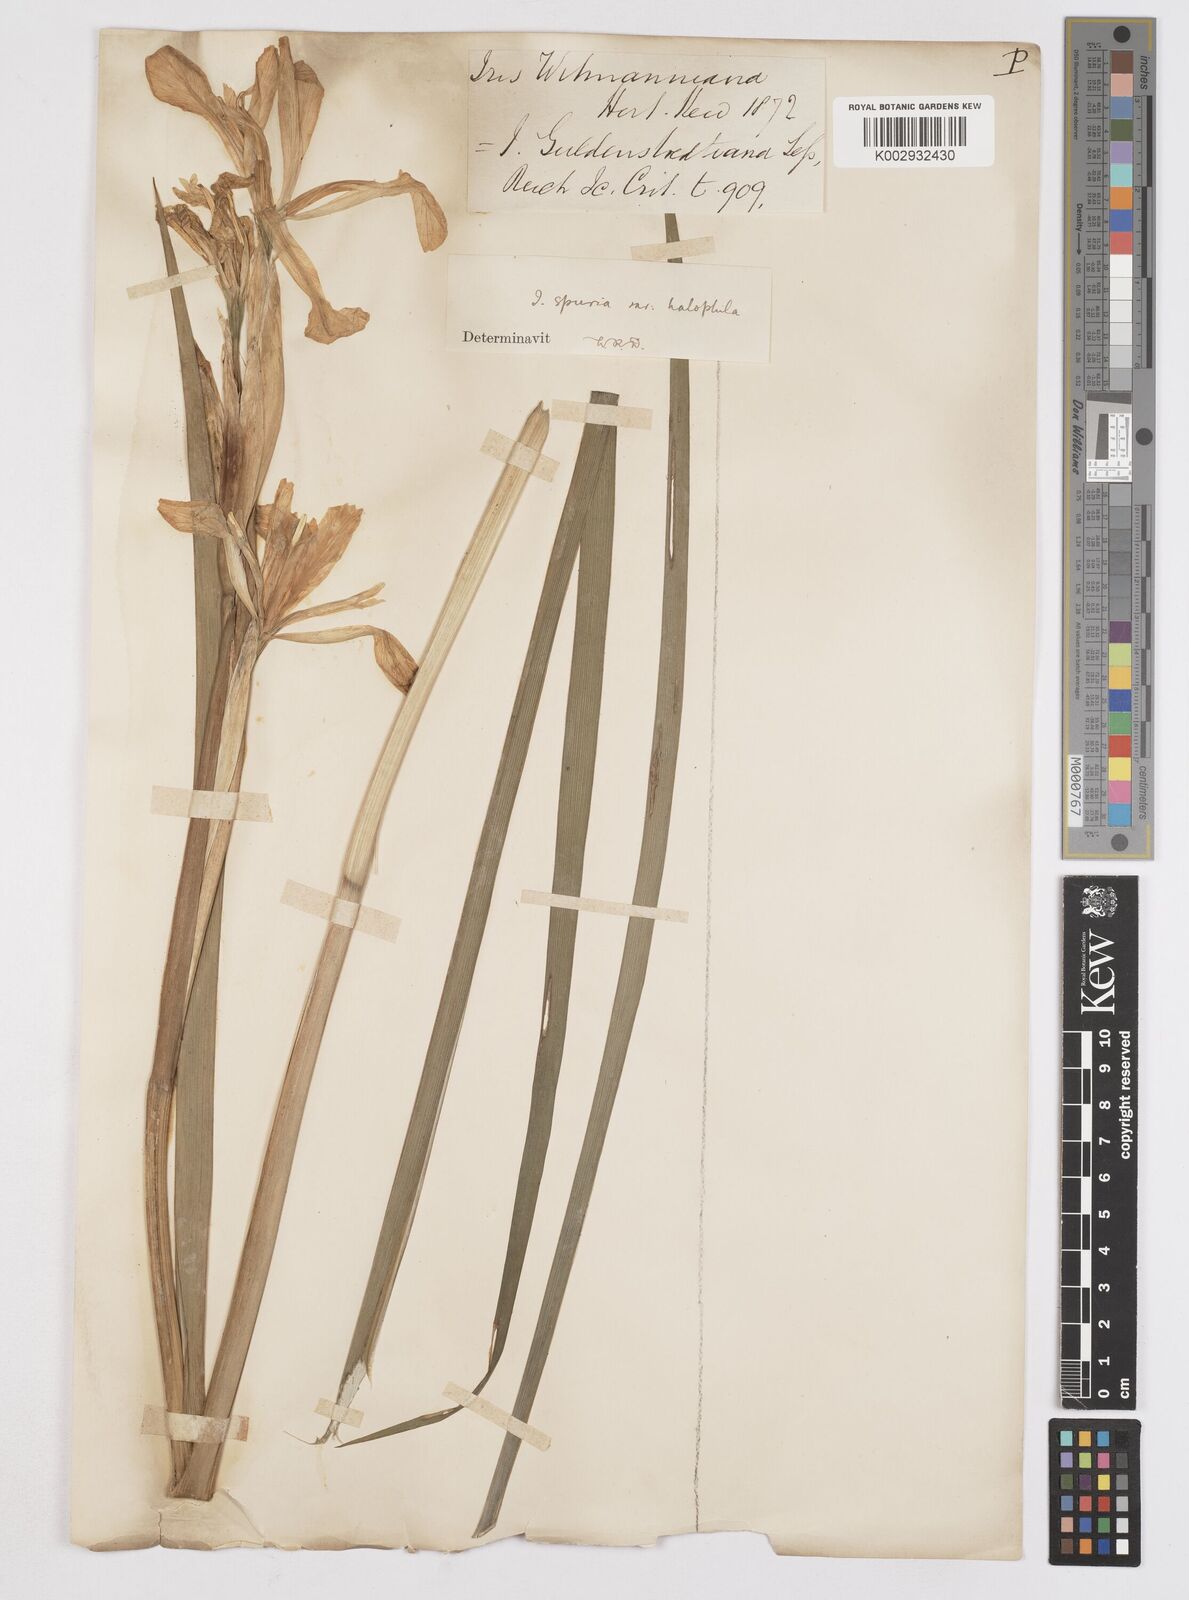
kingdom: Plantae
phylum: Tracheophyta
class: Liliopsida
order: Asparagales
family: Iridaceae
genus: Iris
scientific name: Iris halophila
